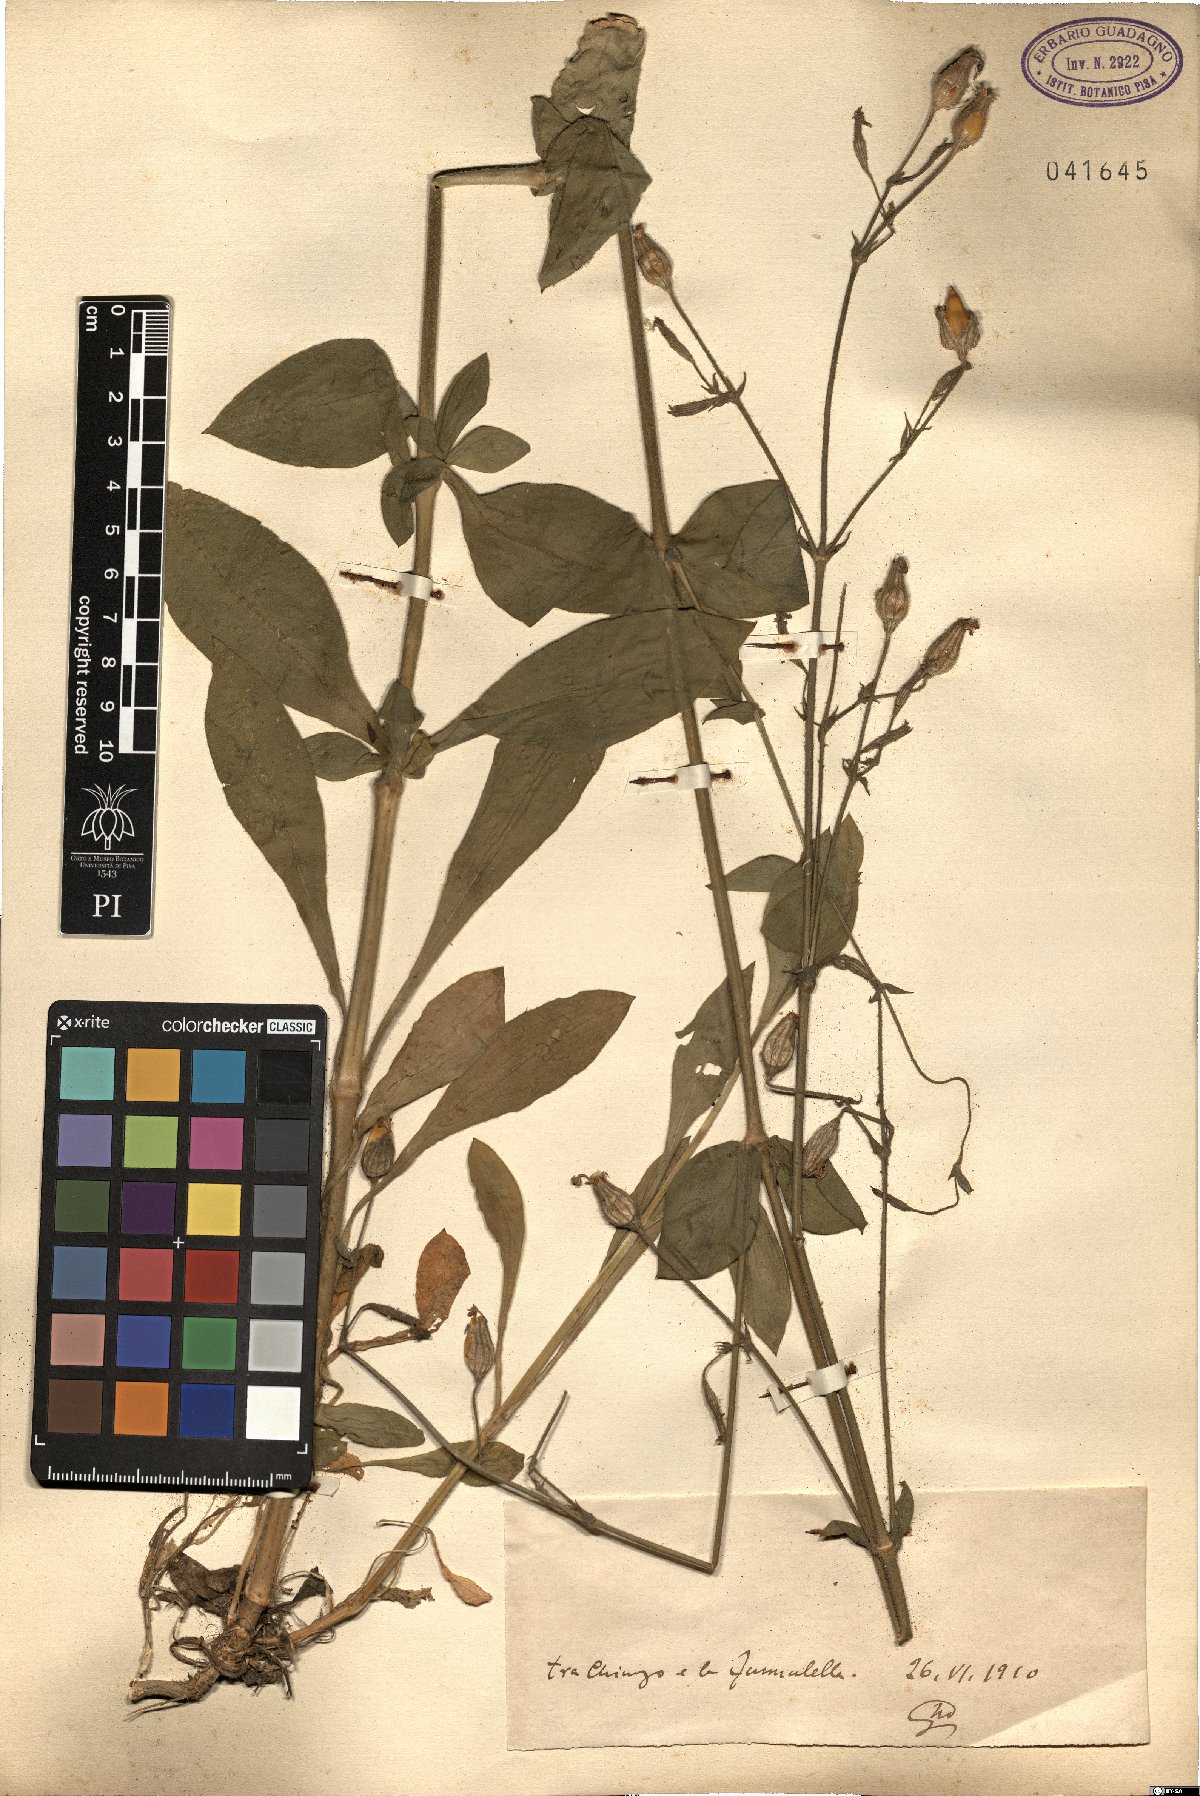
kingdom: Plantae
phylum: Tracheophyta
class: Magnoliopsida
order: Caryophyllales
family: Caryophyllaceae
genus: Silene
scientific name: Silene
